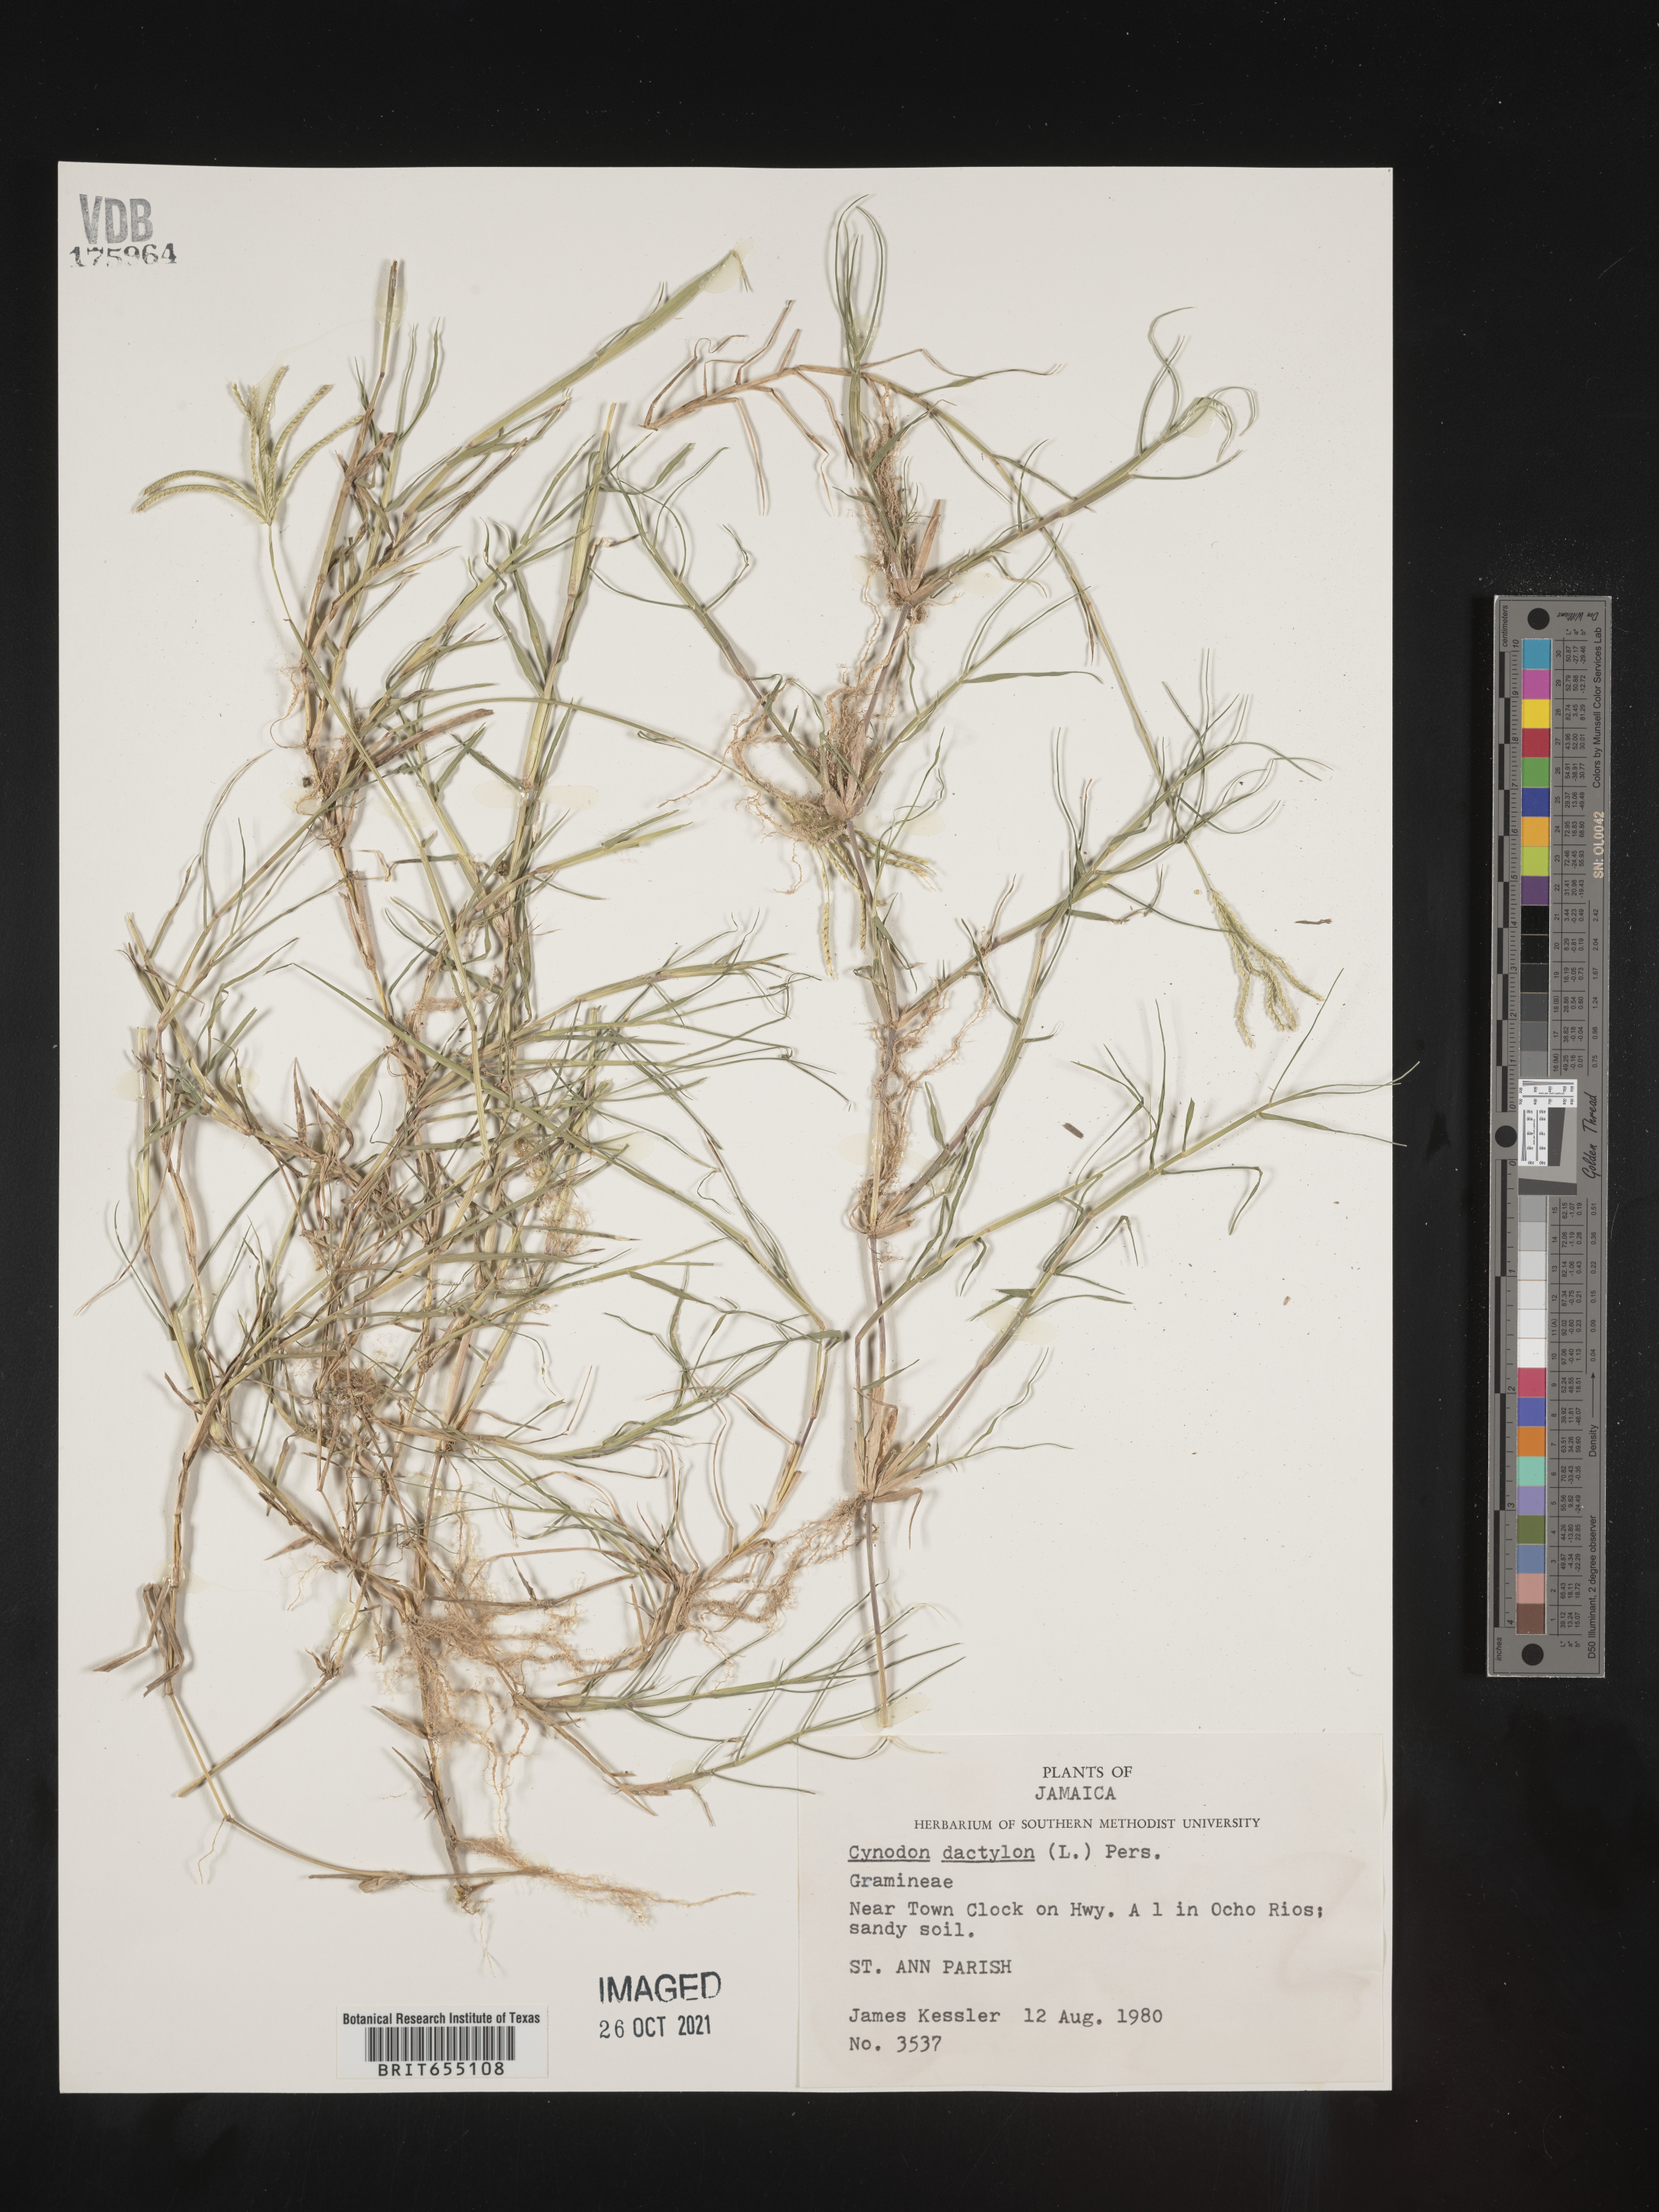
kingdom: Plantae
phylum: Tracheophyta
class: Liliopsida
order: Poales
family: Poaceae
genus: Cynodon
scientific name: Cynodon
